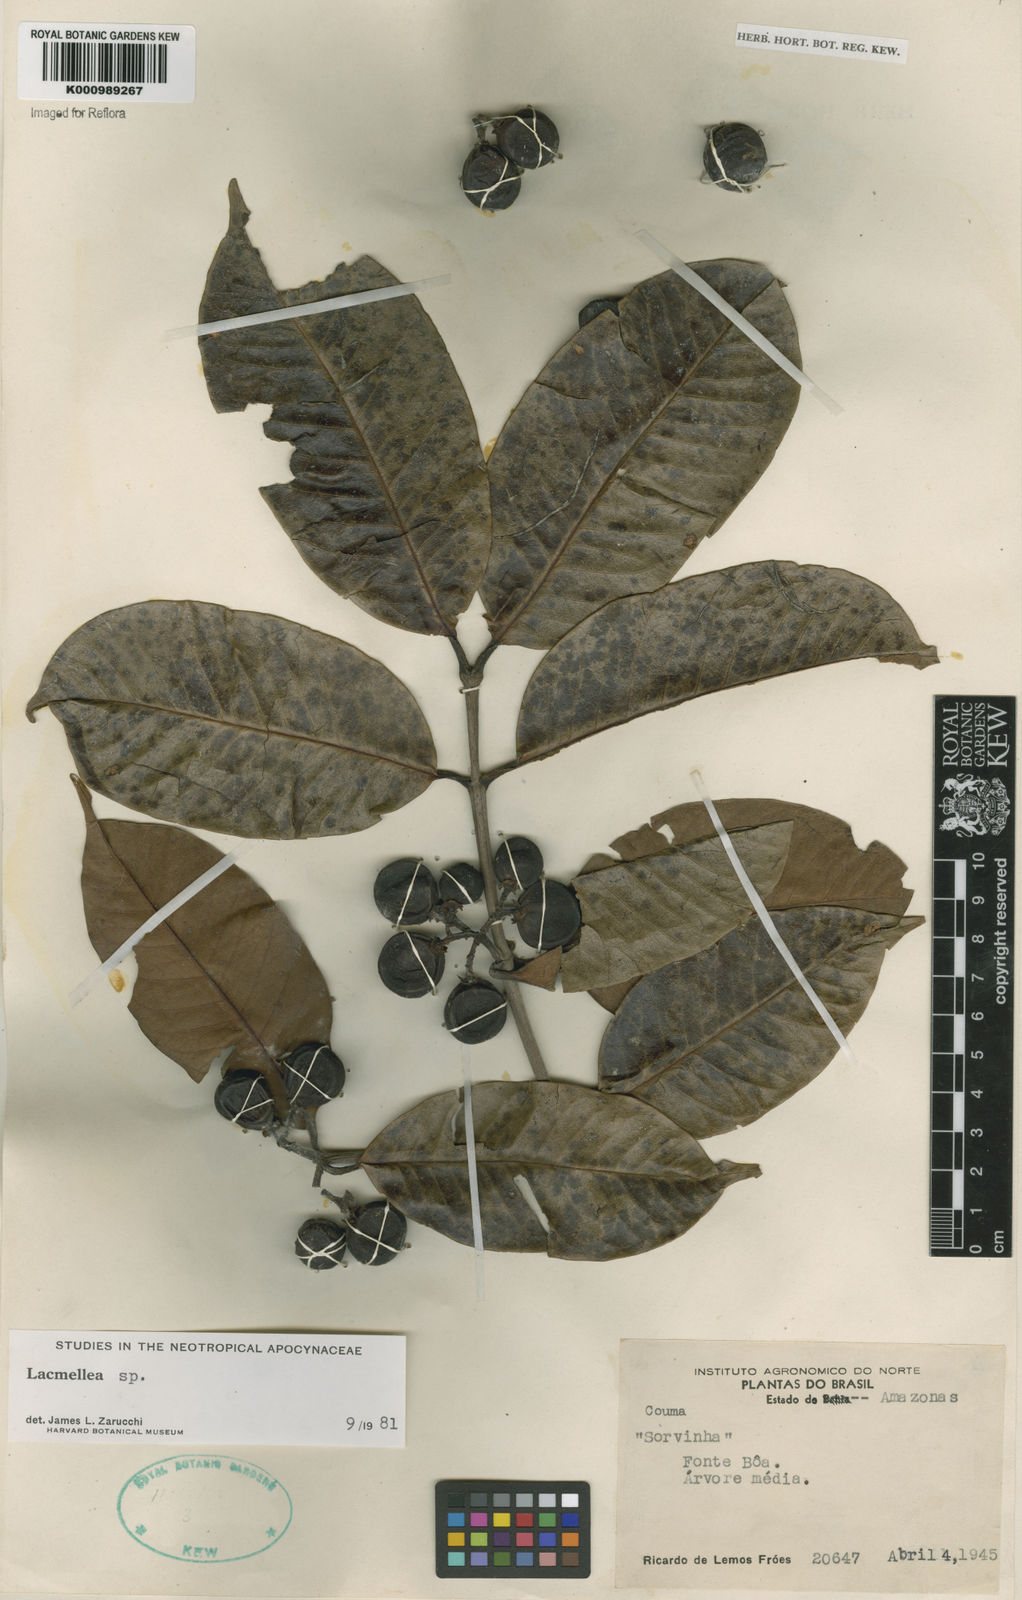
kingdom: Plantae
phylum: Tracheophyta
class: Magnoliopsida
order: Gentianales
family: Apocynaceae
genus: Lacmellea
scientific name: Lacmellea
